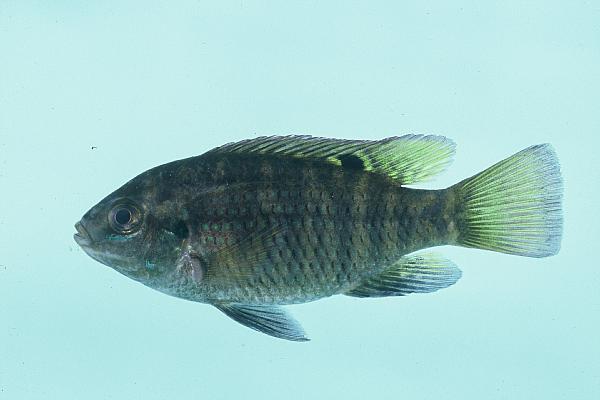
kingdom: Animalia
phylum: Chordata
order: Perciformes
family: Cichlidae
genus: Tilapia
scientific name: Tilapia sparrmanii
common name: Banded tilapia
